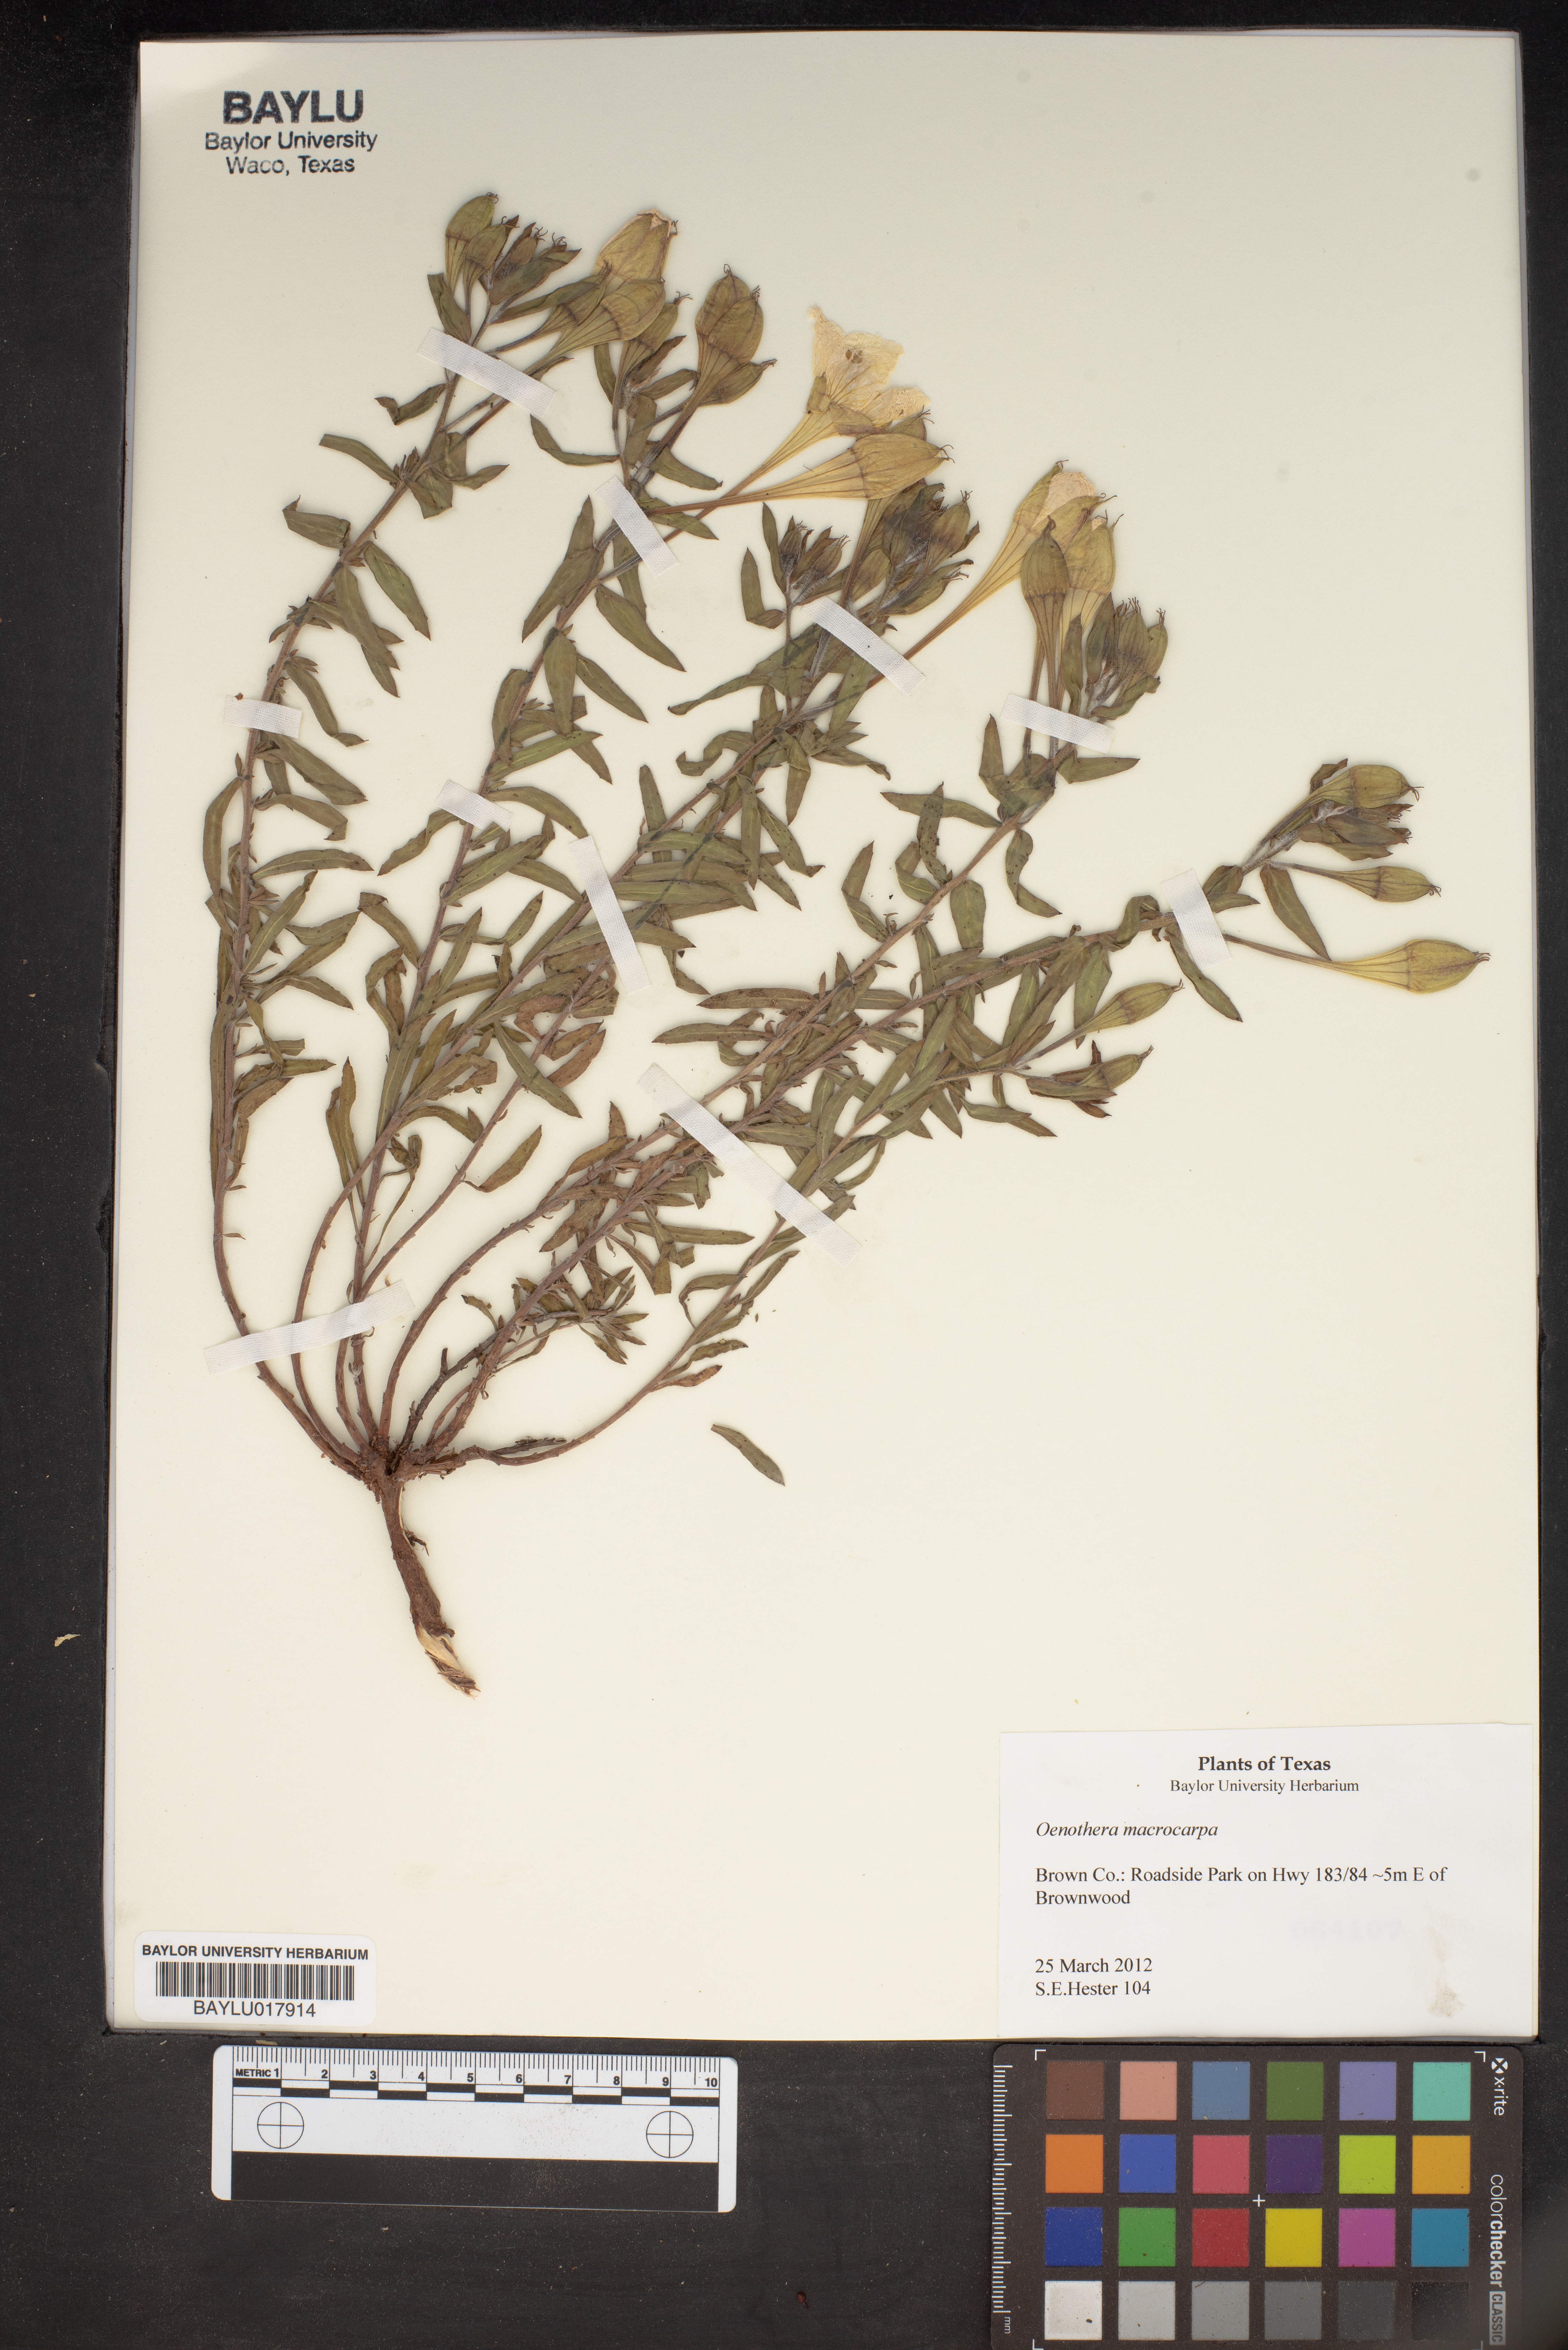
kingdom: Plantae
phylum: Tracheophyta
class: Magnoliopsida
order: Myrtales
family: Onagraceae
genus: Oenothera
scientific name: Oenothera macrocarpa
